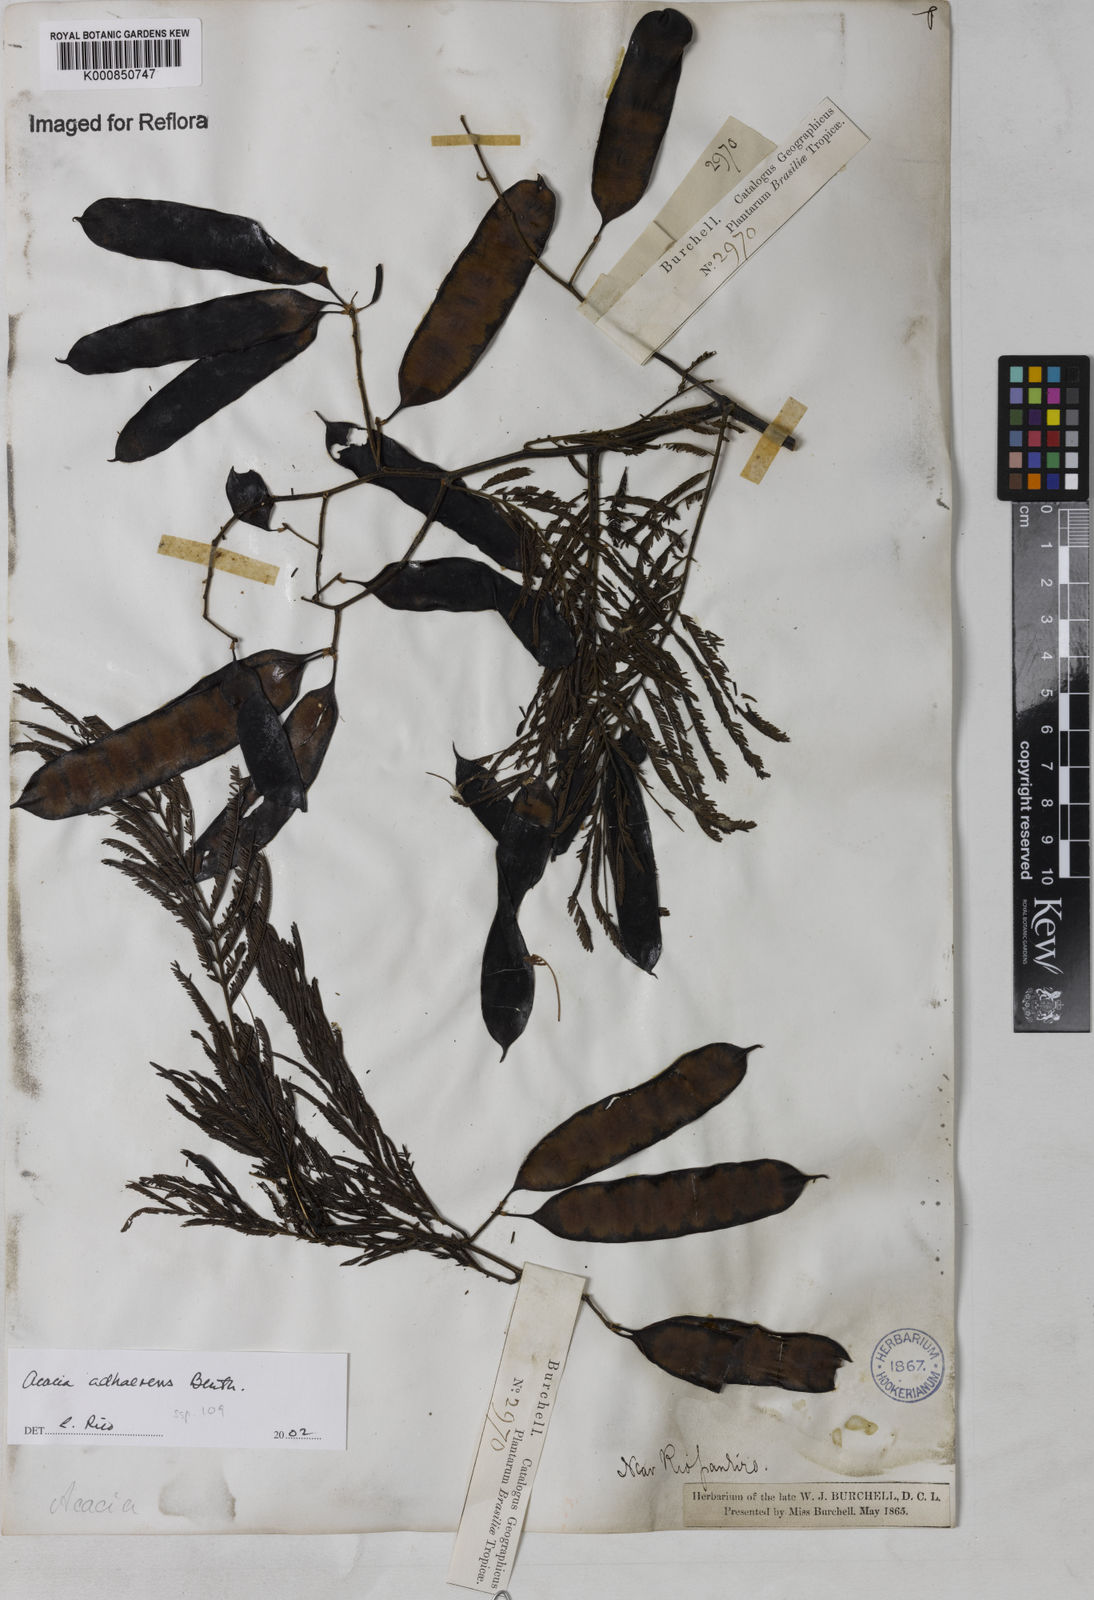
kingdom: Plantae
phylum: Tracheophyta
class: Magnoliopsida
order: Fabales
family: Fabaceae
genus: Senegalia
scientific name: Senegalia martiusiana
